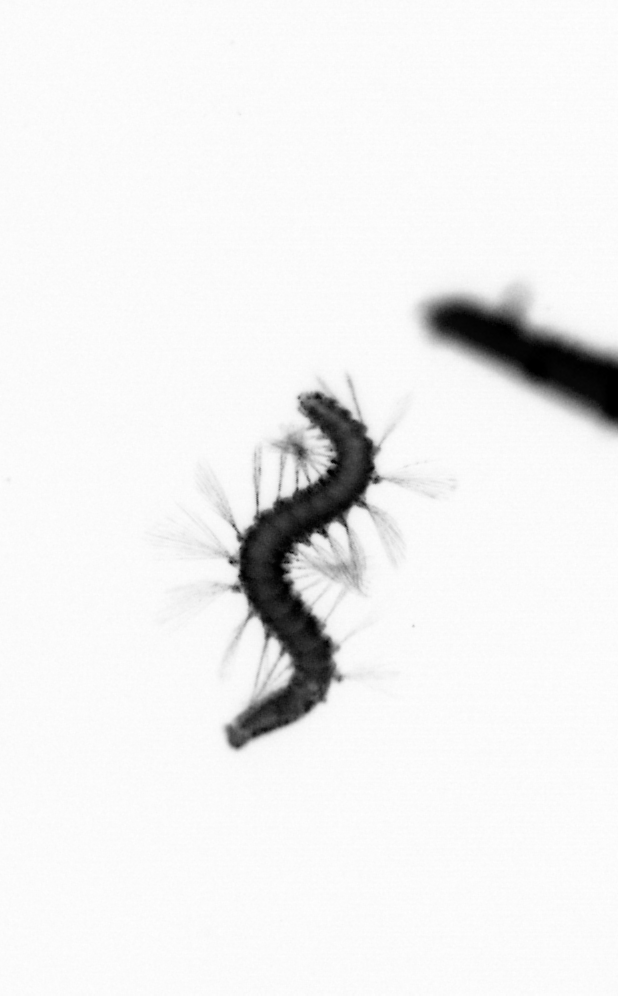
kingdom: Animalia
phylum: Annelida
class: Polychaeta
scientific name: Polychaeta
